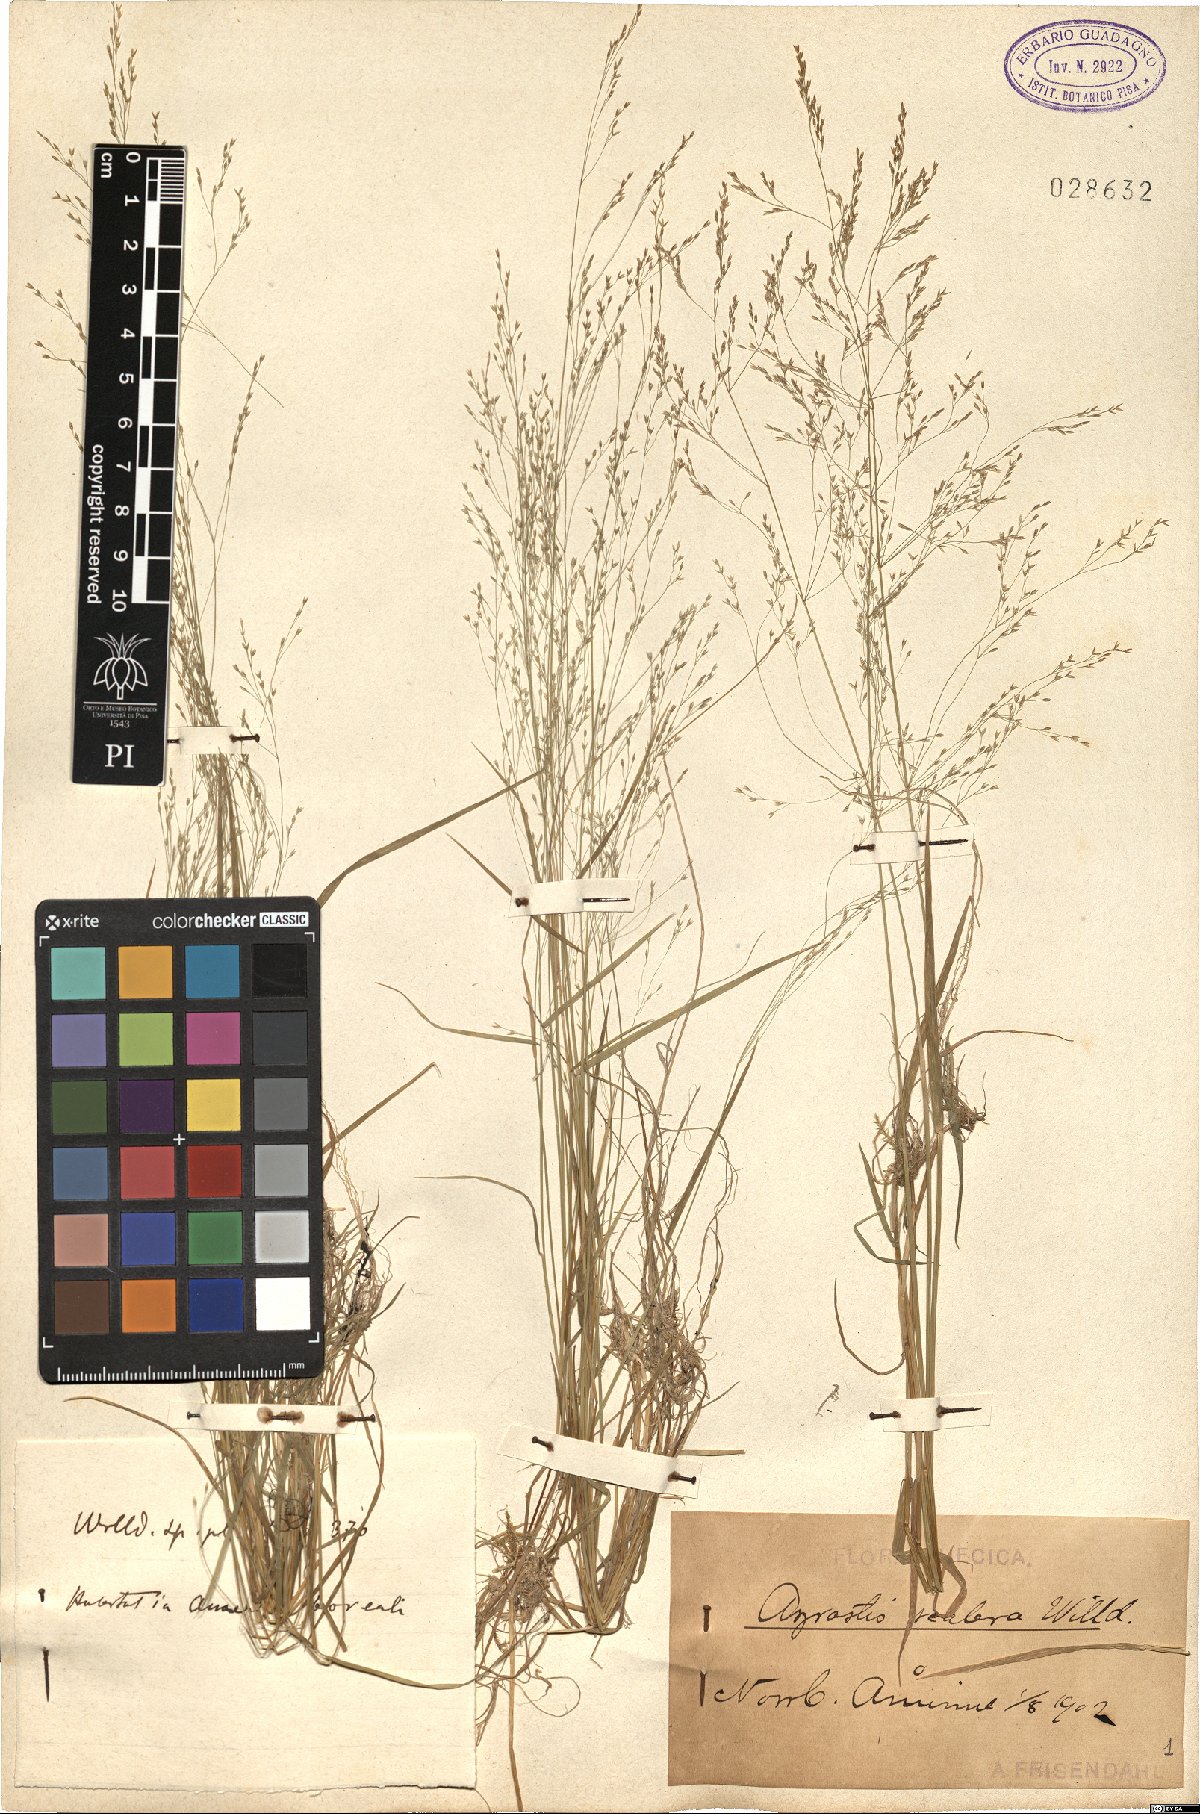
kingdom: Plantae
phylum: Tracheophyta
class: Liliopsida
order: Poales
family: Poaceae
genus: Agrostis
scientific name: Agrostis scabra
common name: Rough bent
